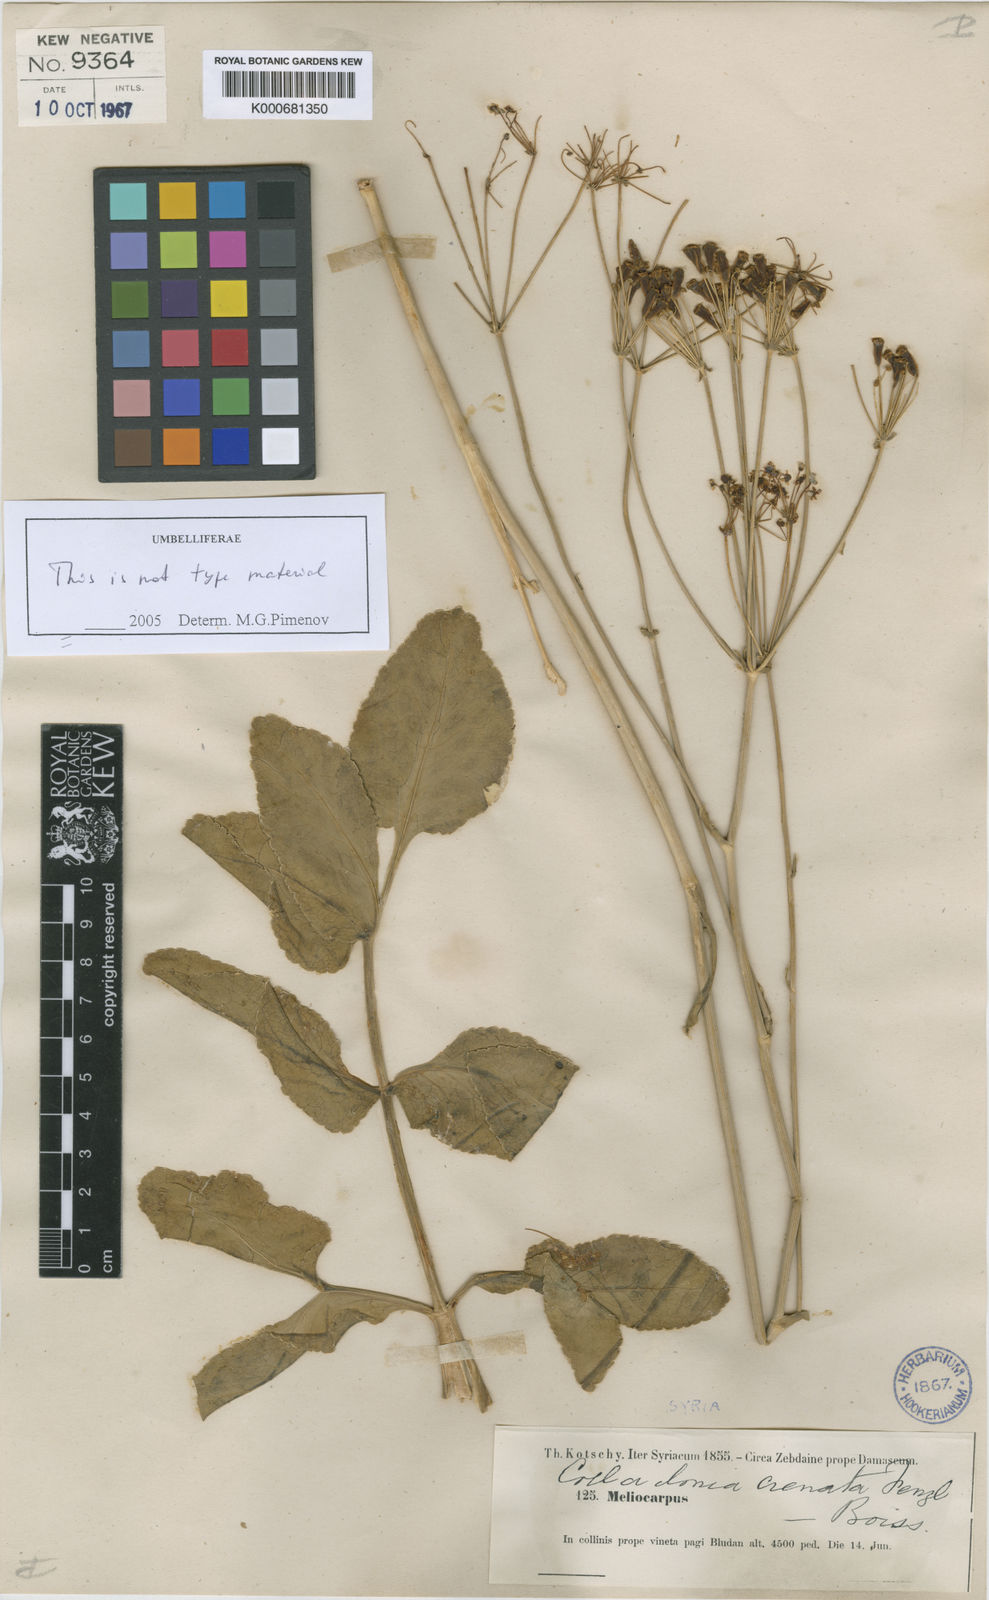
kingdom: Plantae
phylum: Tracheophyta
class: Magnoliopsida
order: Apiales
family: Apiaceae
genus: Heptaptera
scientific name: Heptaptera anisoptera
